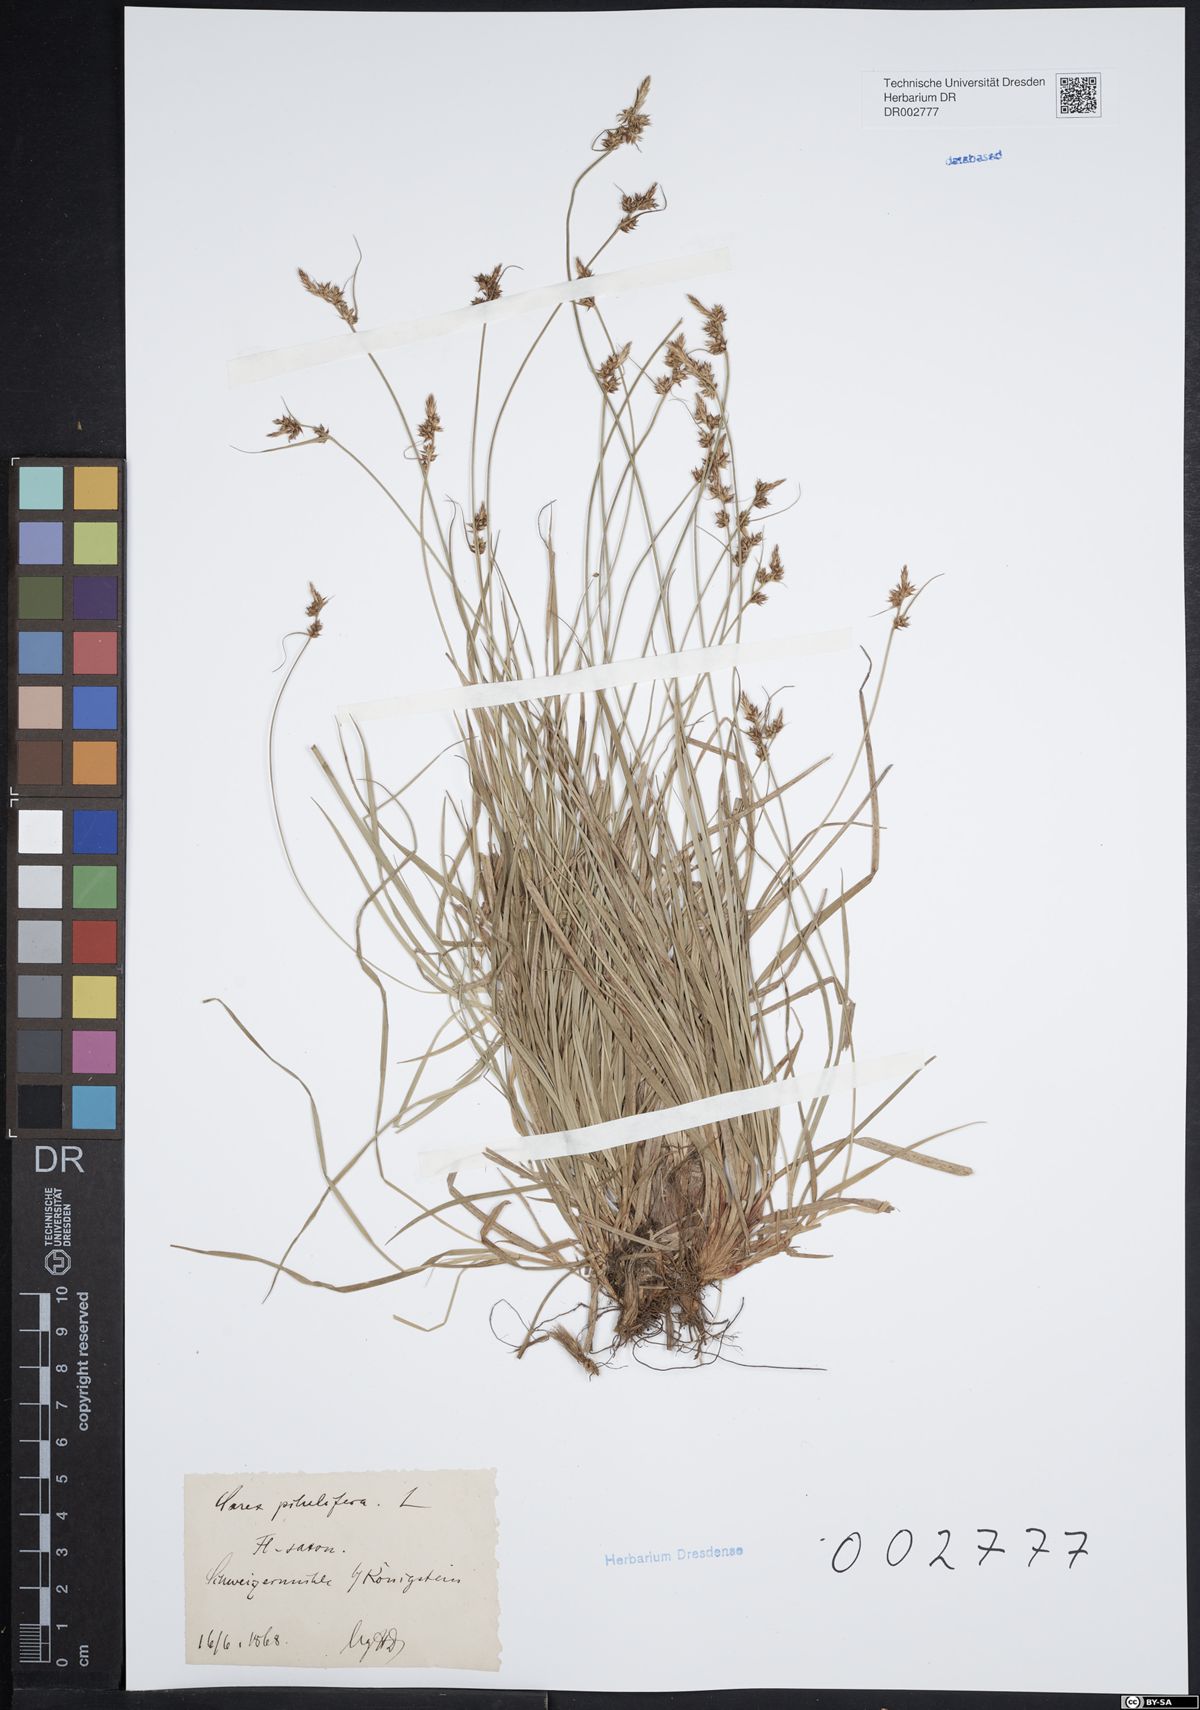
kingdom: Plantae
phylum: Tracheophyta
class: Liliopsida
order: Poales
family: Cyperaceae
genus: Carex
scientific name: Carex caryophyllea
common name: Spring sedge
